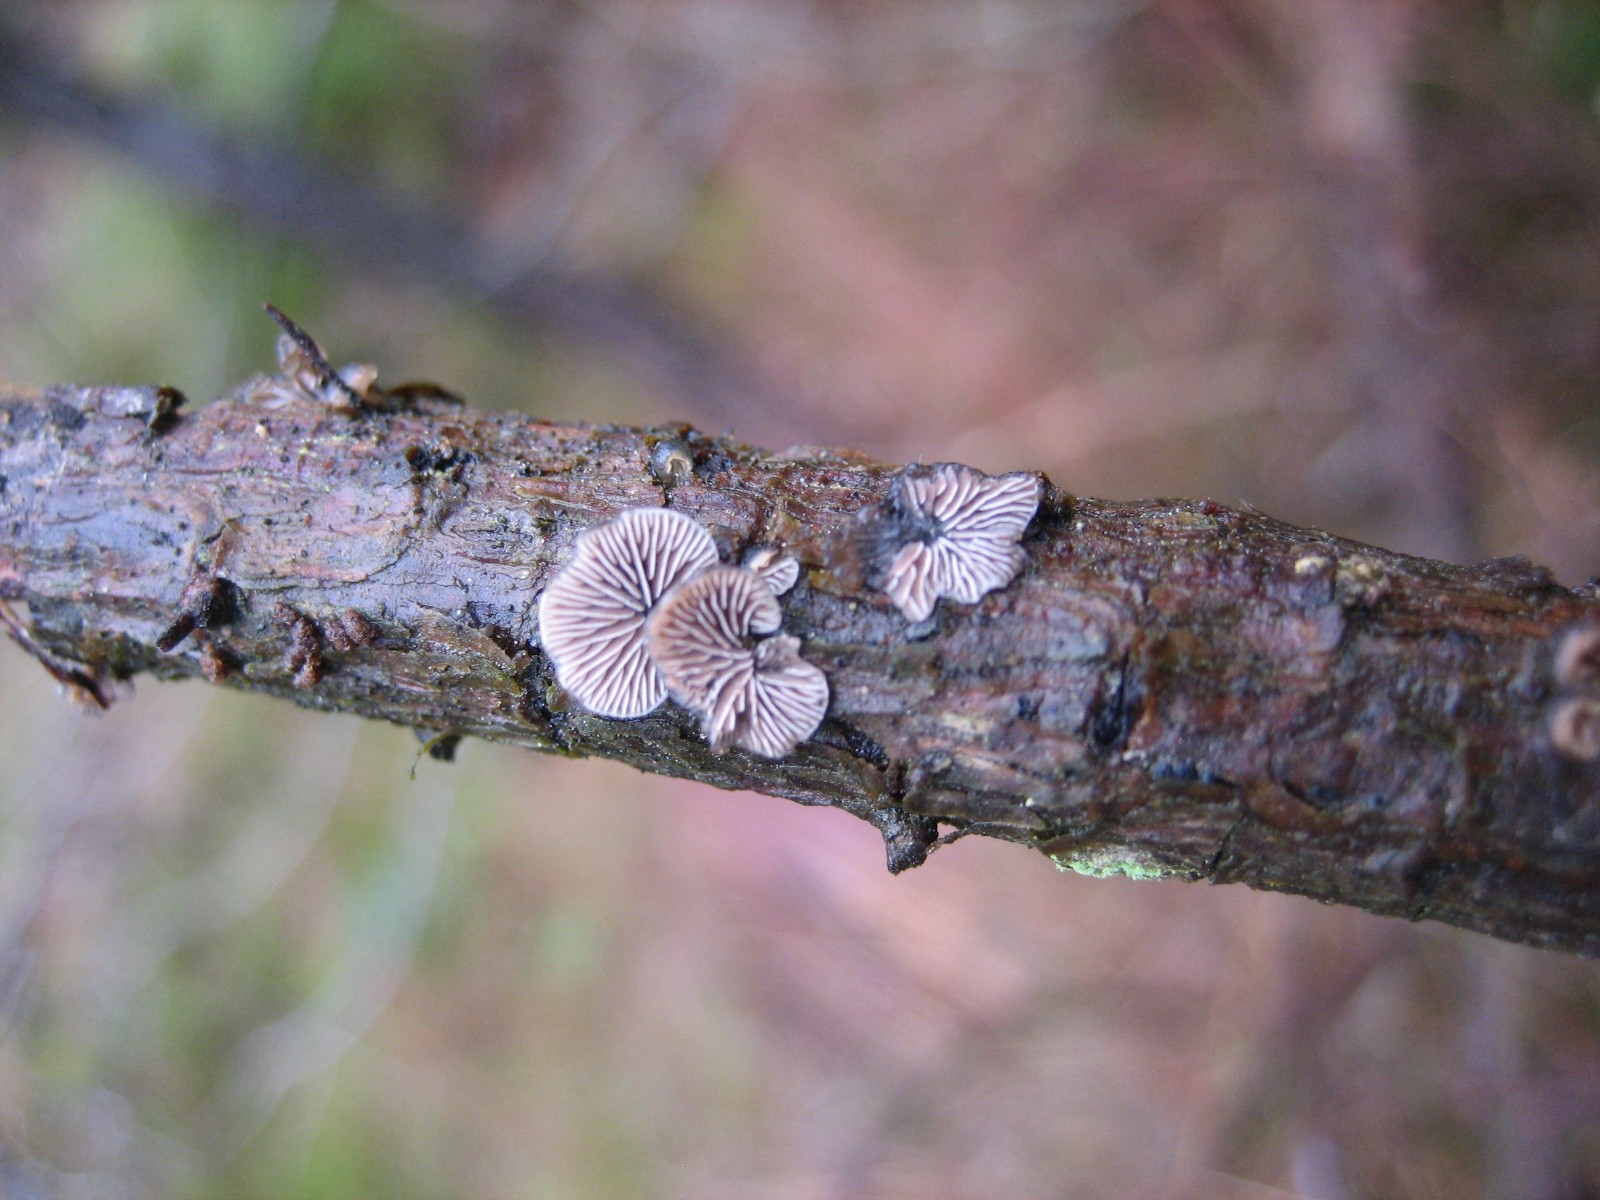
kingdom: Fungi
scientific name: Fungi
